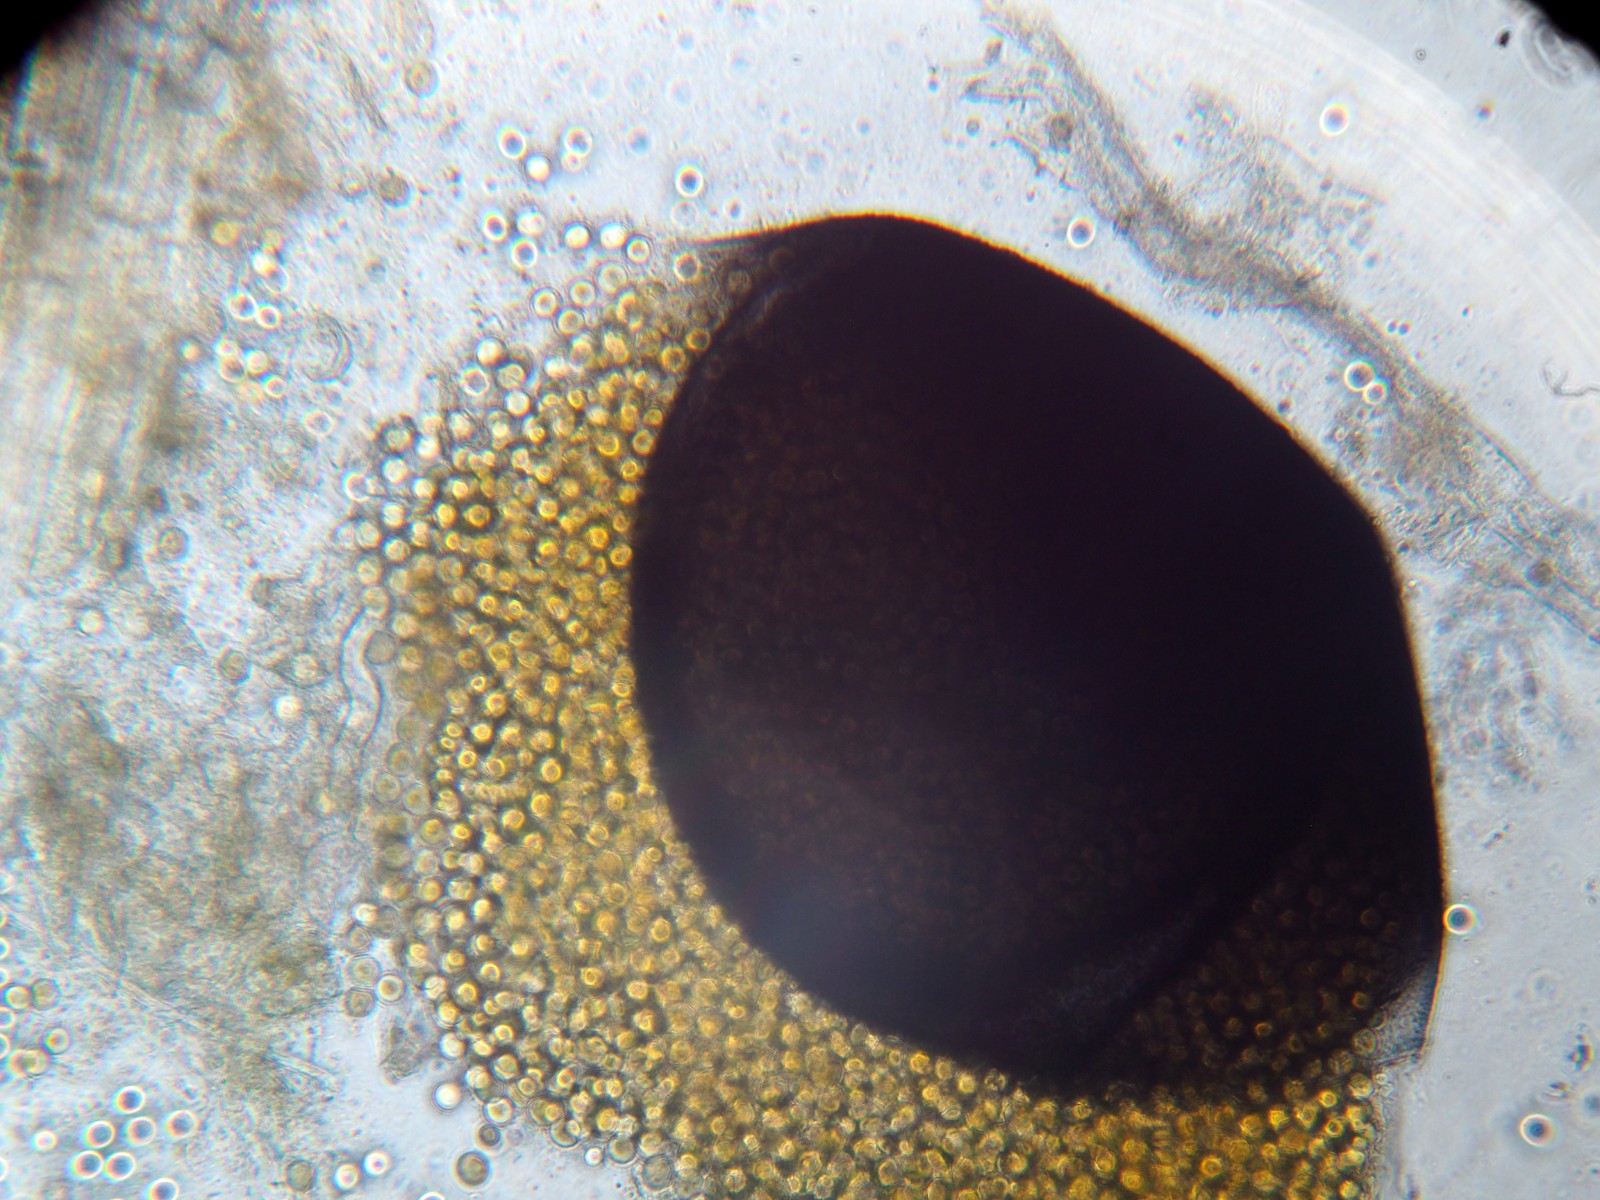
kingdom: Fungi
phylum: Mucoromycota
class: Mucoromycetes
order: Mucorales
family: Pilobolaceae
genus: Pilobolus
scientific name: Pilobolus lentiger
